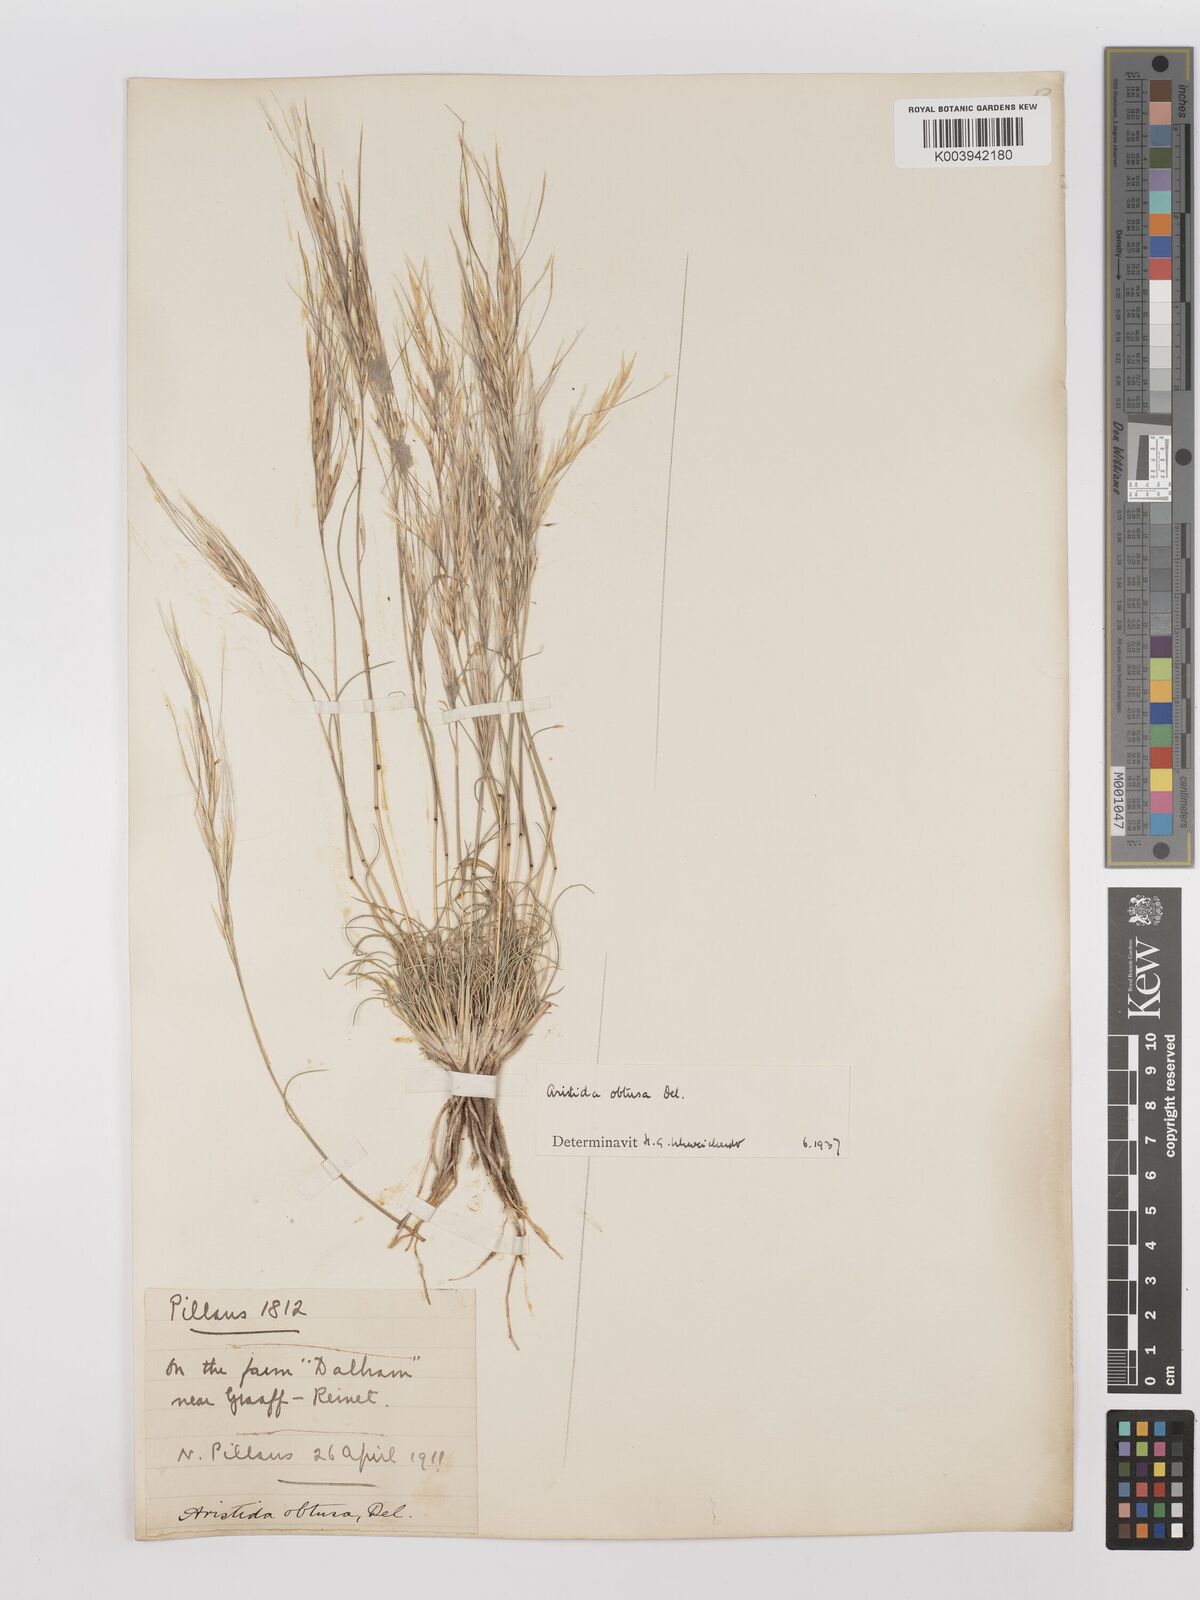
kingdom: Plantae
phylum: Tracheophyta
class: Liliopsida
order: Poales
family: Poaceae
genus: Stipagrostis
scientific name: Stipagrostis obtusa
